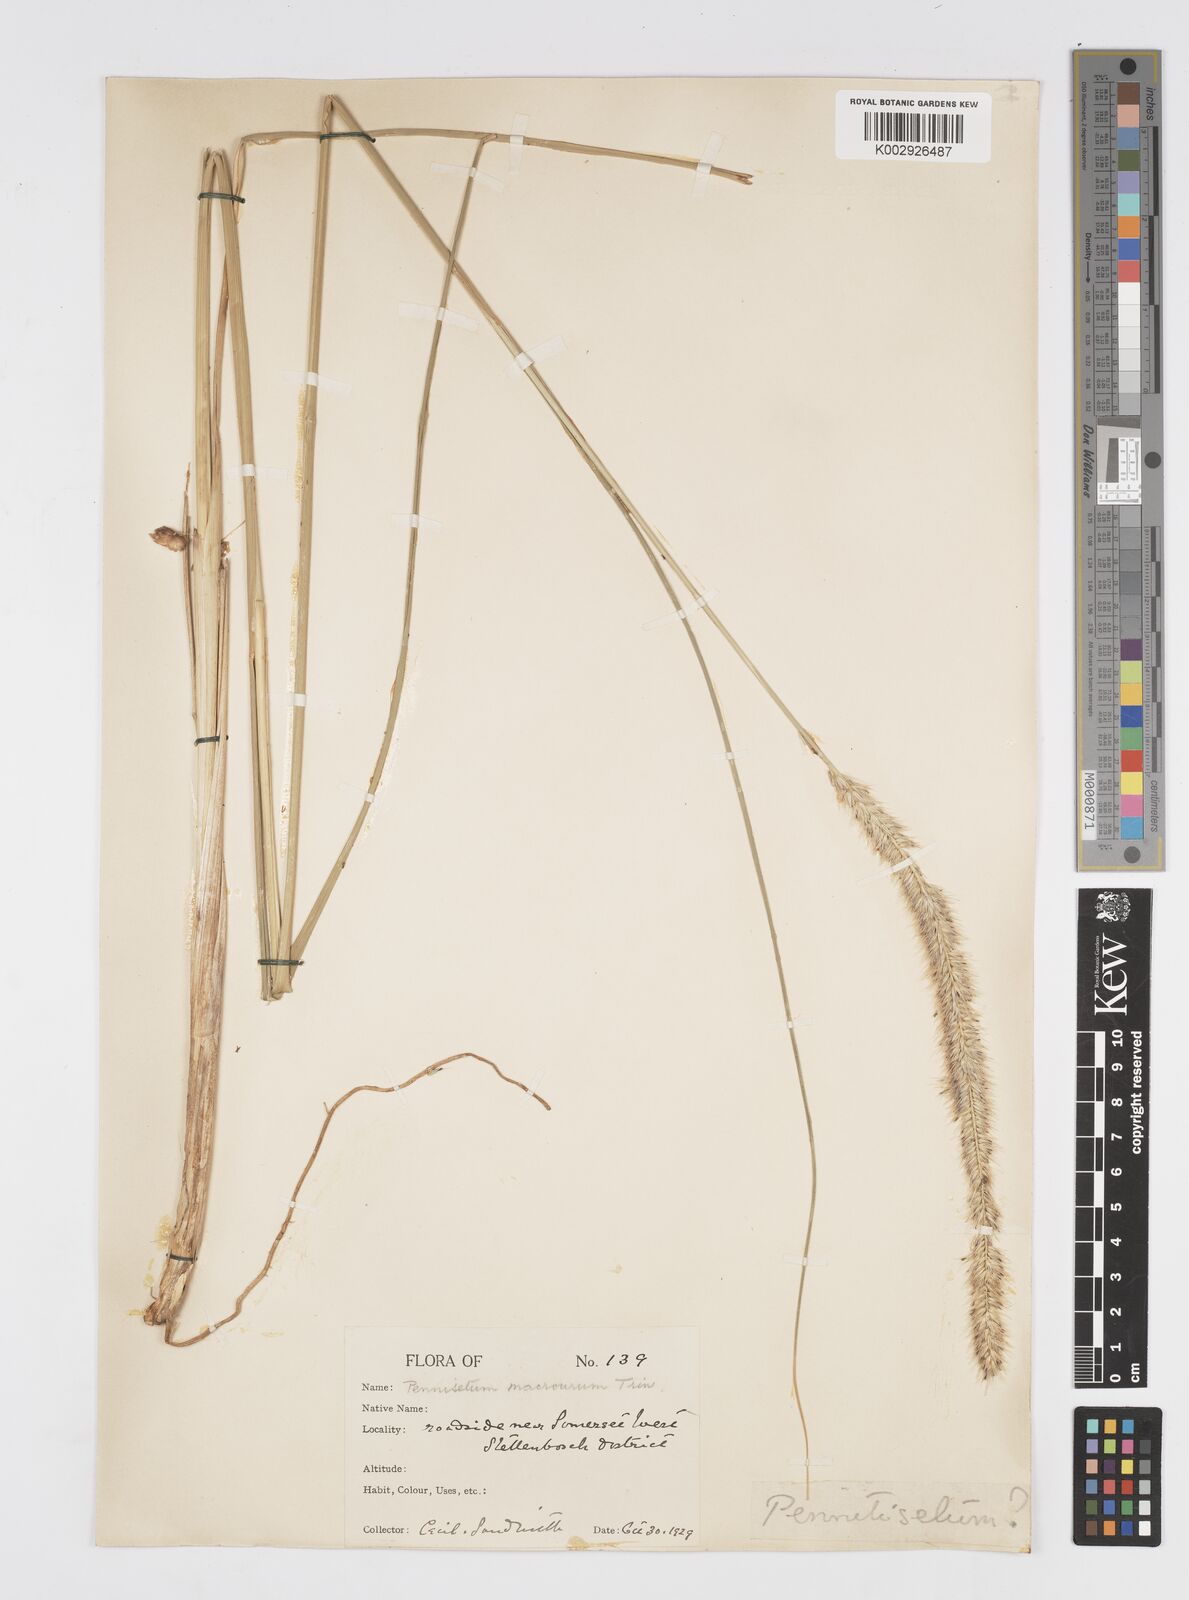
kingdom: Plantae
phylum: Tracheophyta
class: Liliopsida
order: Poales
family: Poaceae
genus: Cenchrus
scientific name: Cenchrus caudatus
